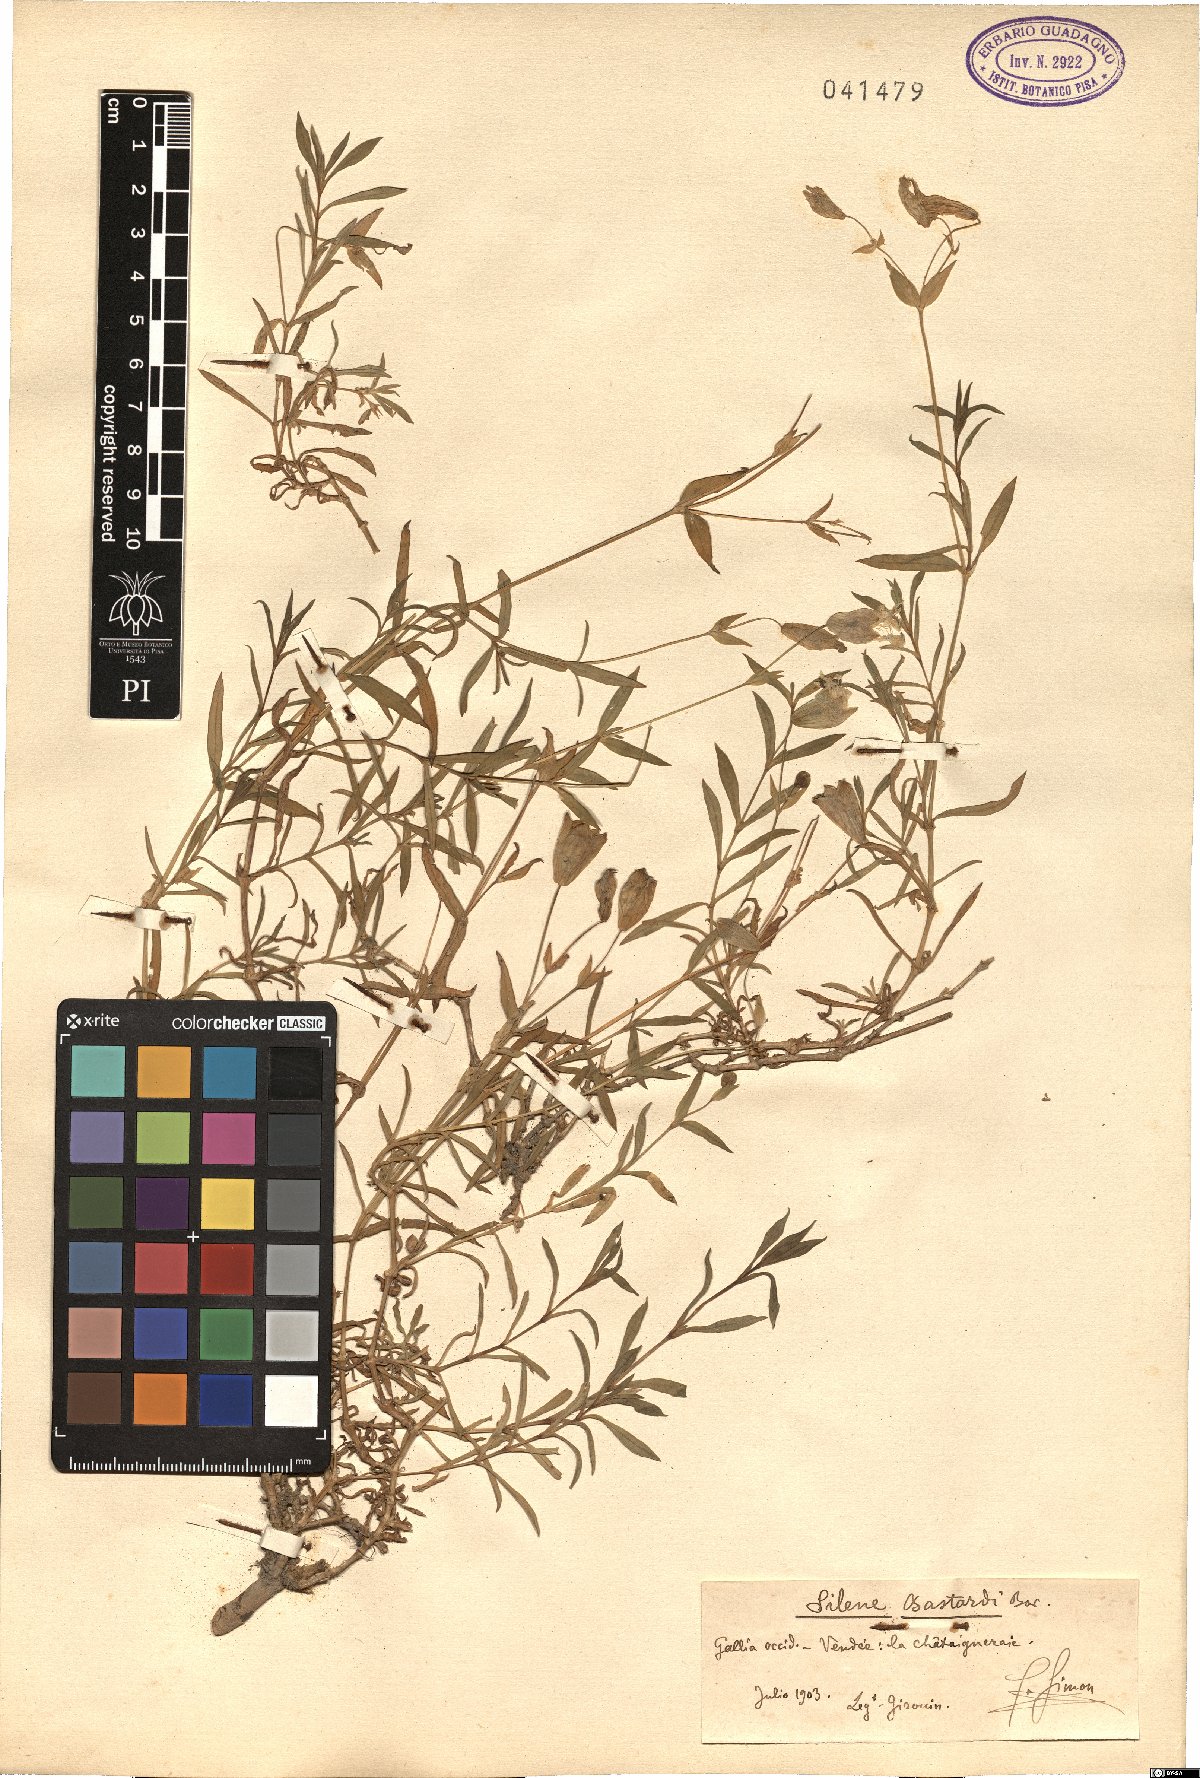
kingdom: Plantae
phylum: Tracheophyta
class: Magnoliopsida
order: Caryophyllales
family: Caryophyllaceae
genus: Silene
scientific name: Silene uniflora
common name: Sea campion
